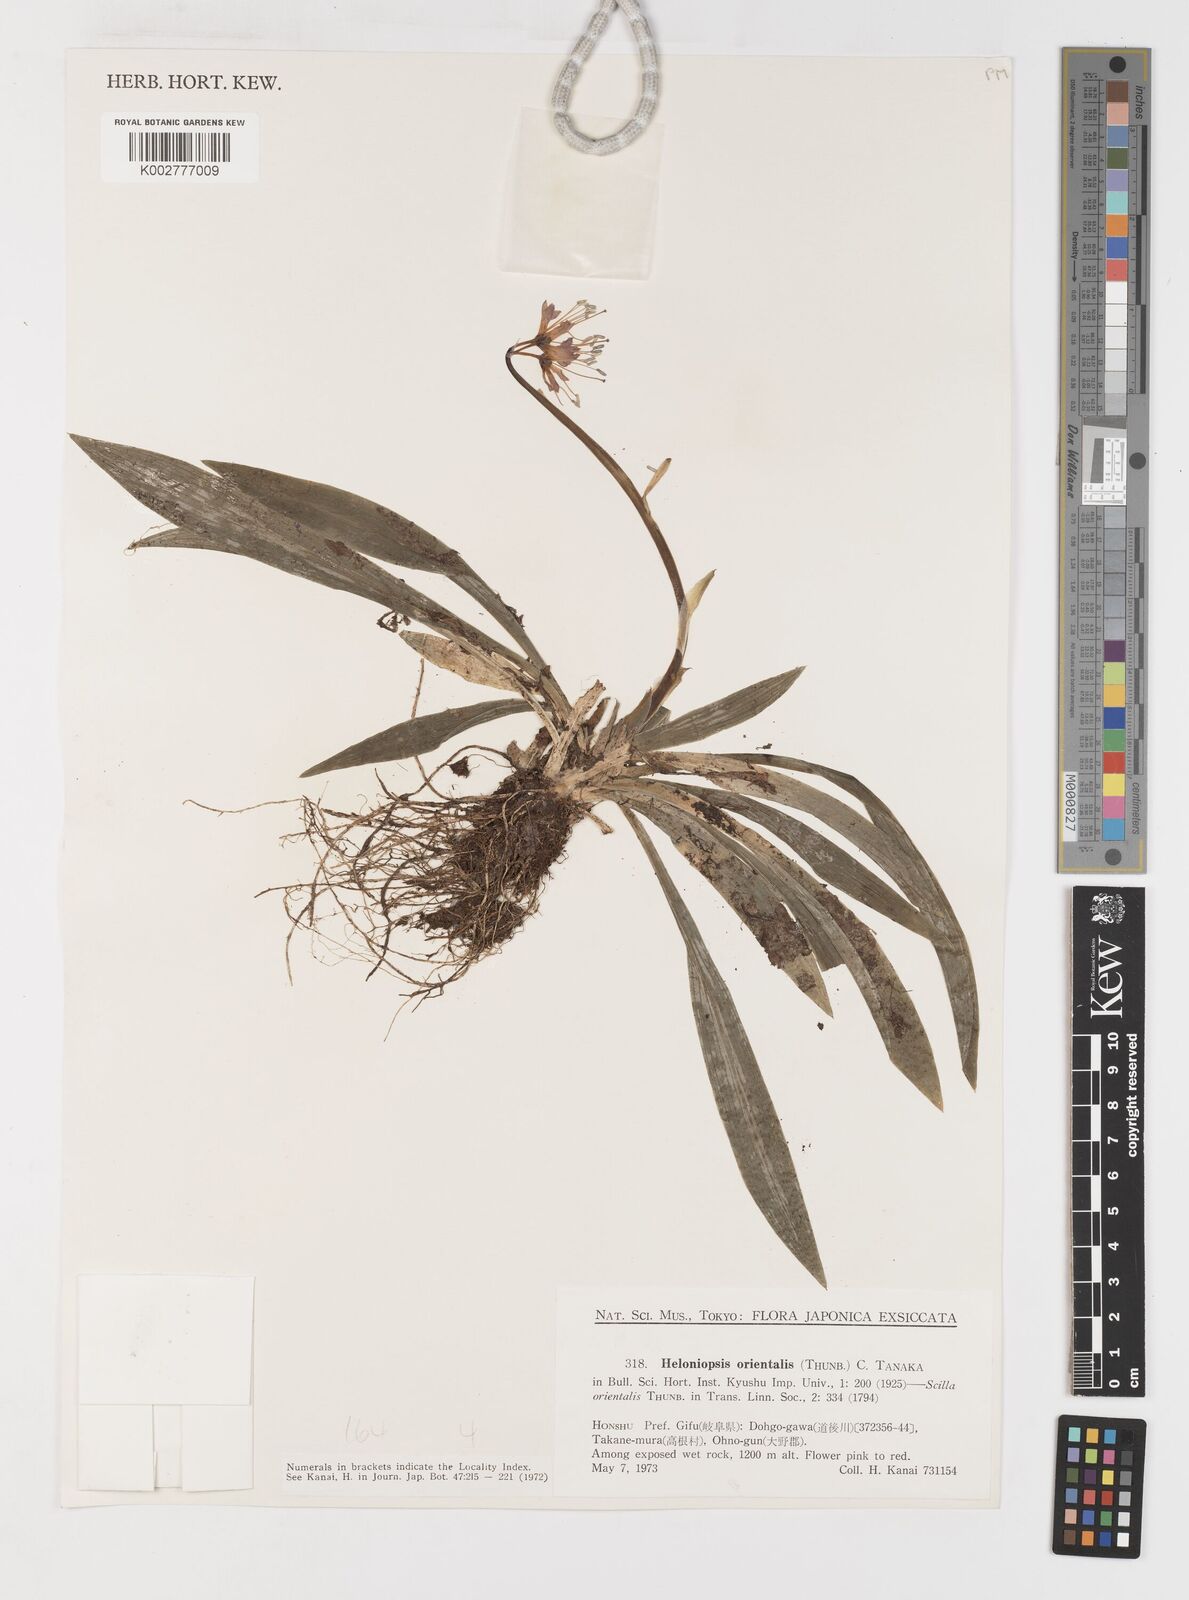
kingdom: Plantae
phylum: Tracheophyta
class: Liliopsida
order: Liliales
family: Melanthiaceae
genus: Helonias
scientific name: Helonias orientalis
